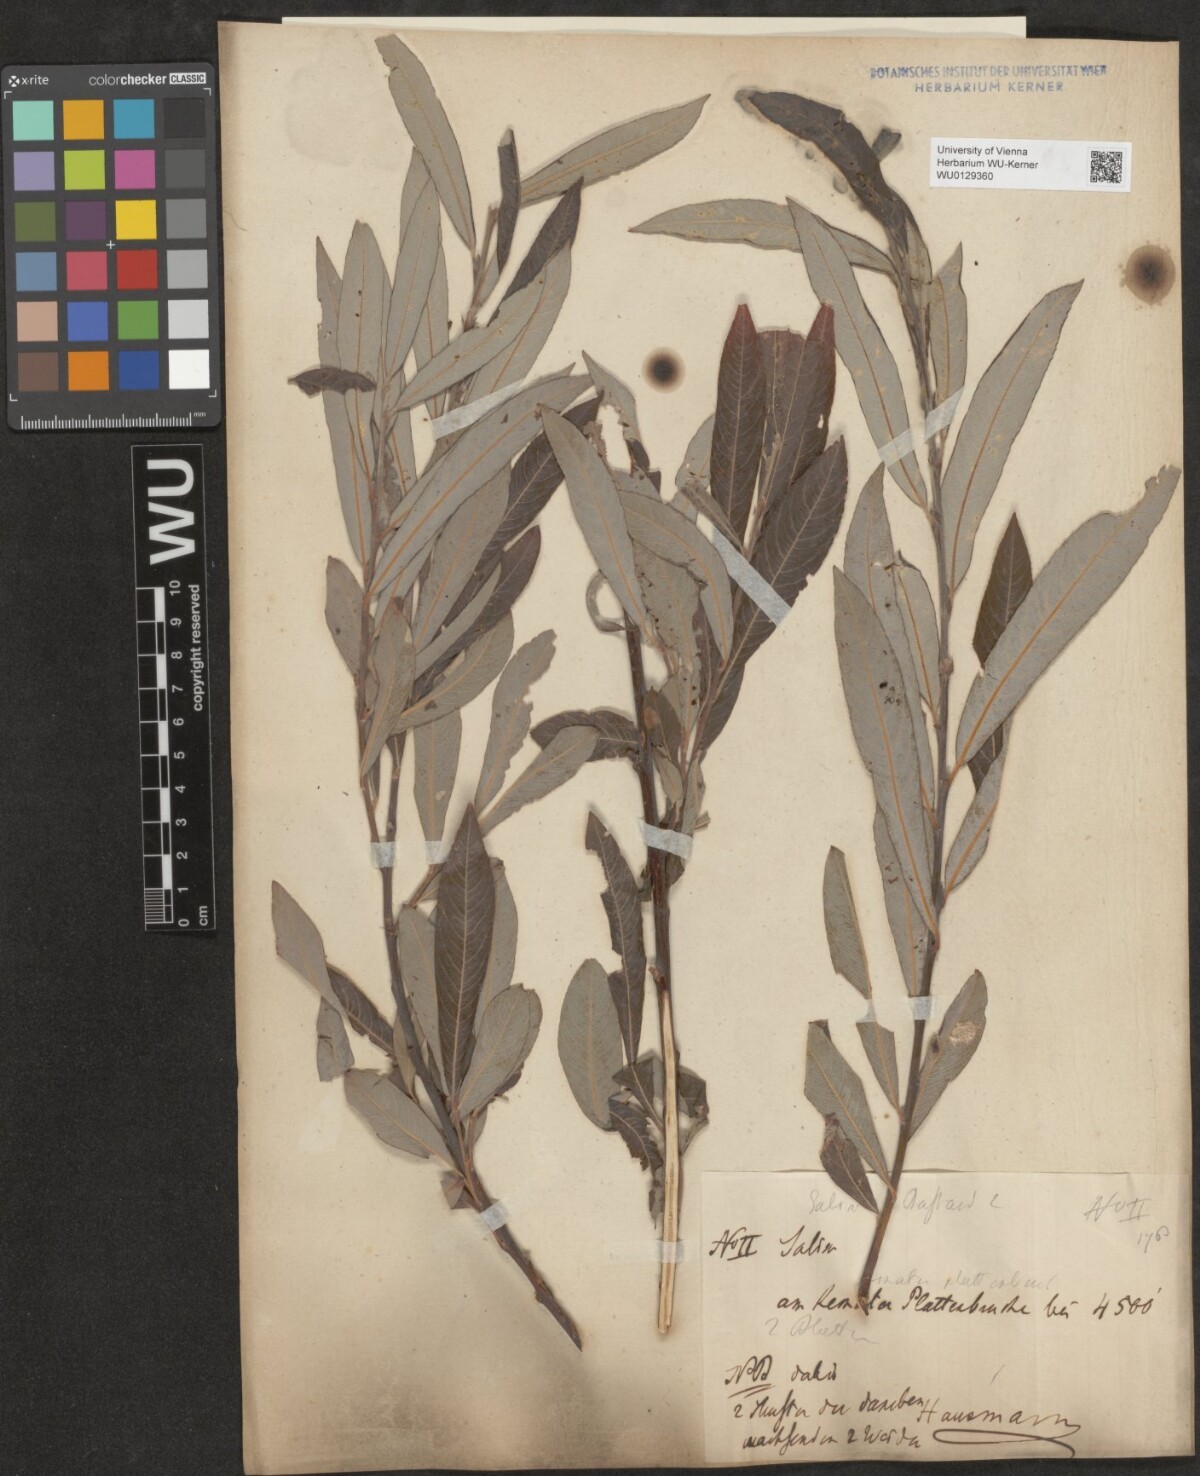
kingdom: Plantae
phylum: Tracheophyta
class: Magnoliopsida
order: Malpighiales
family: Salicaceae
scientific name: Salicaceae
